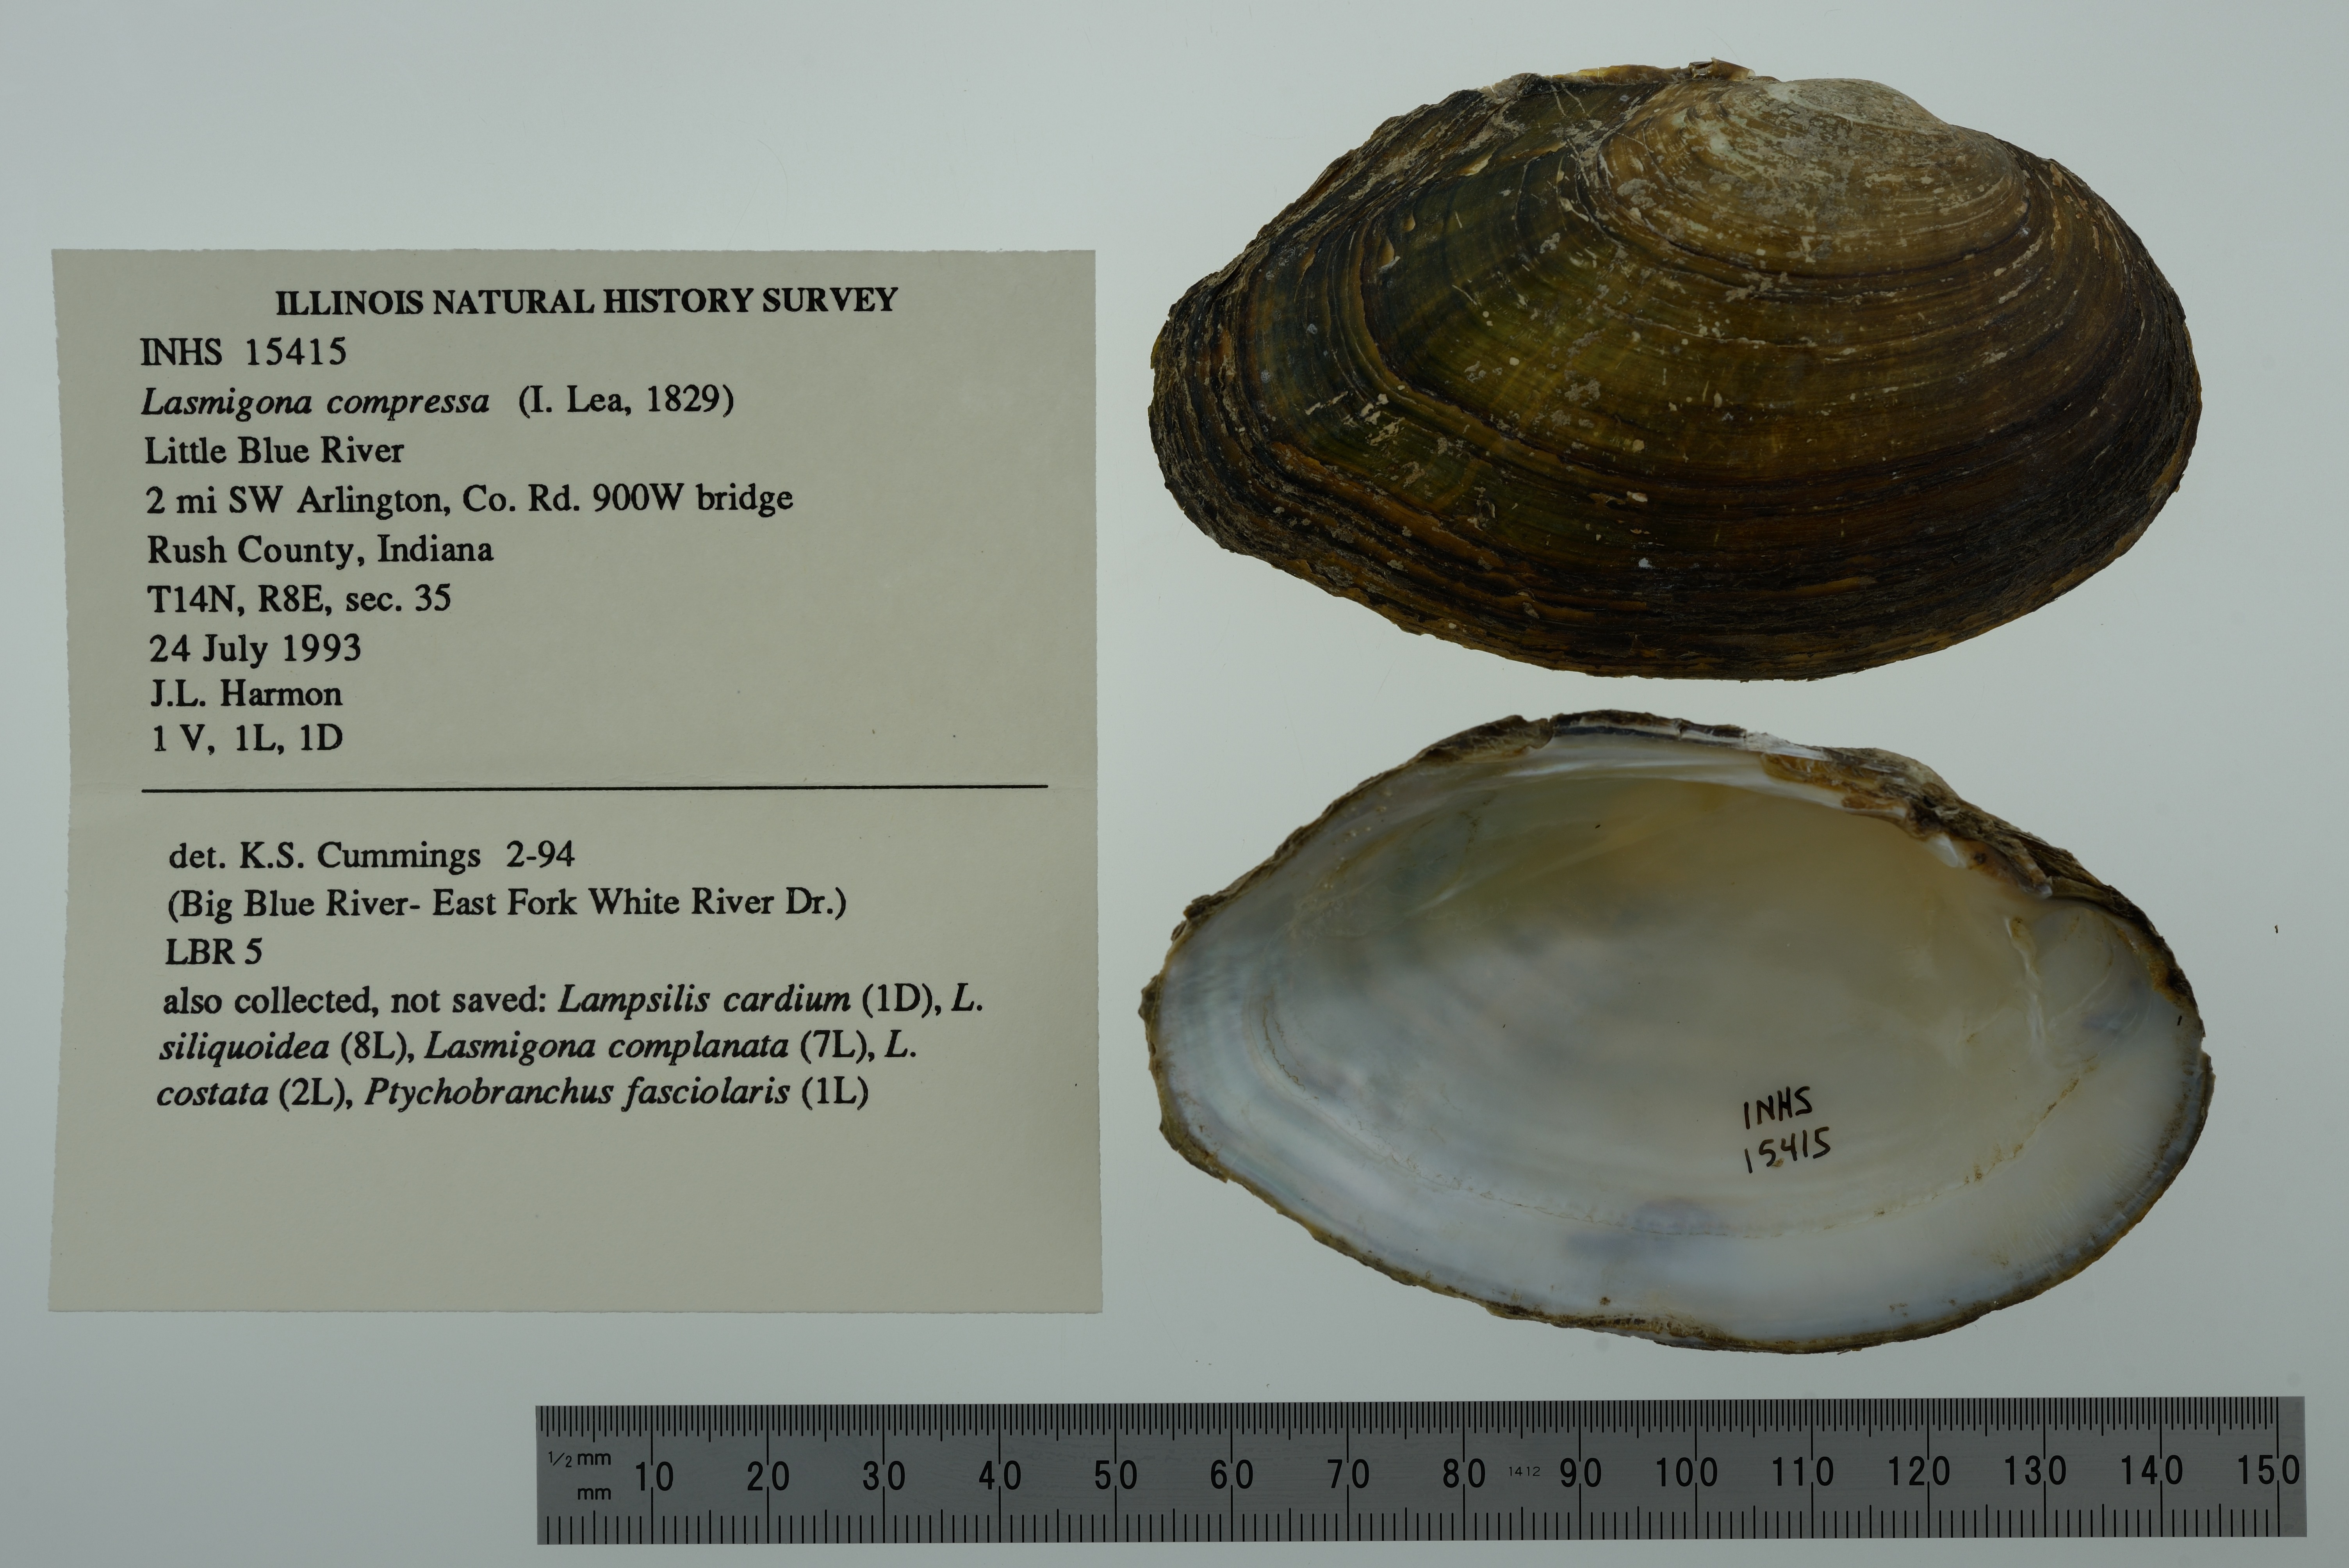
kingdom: Animalia
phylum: Mollusca
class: Bivalvia
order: Unionida
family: Unionidae
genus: Lasmigona
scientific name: Lasmigona compressa
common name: Creek heelsplitter
